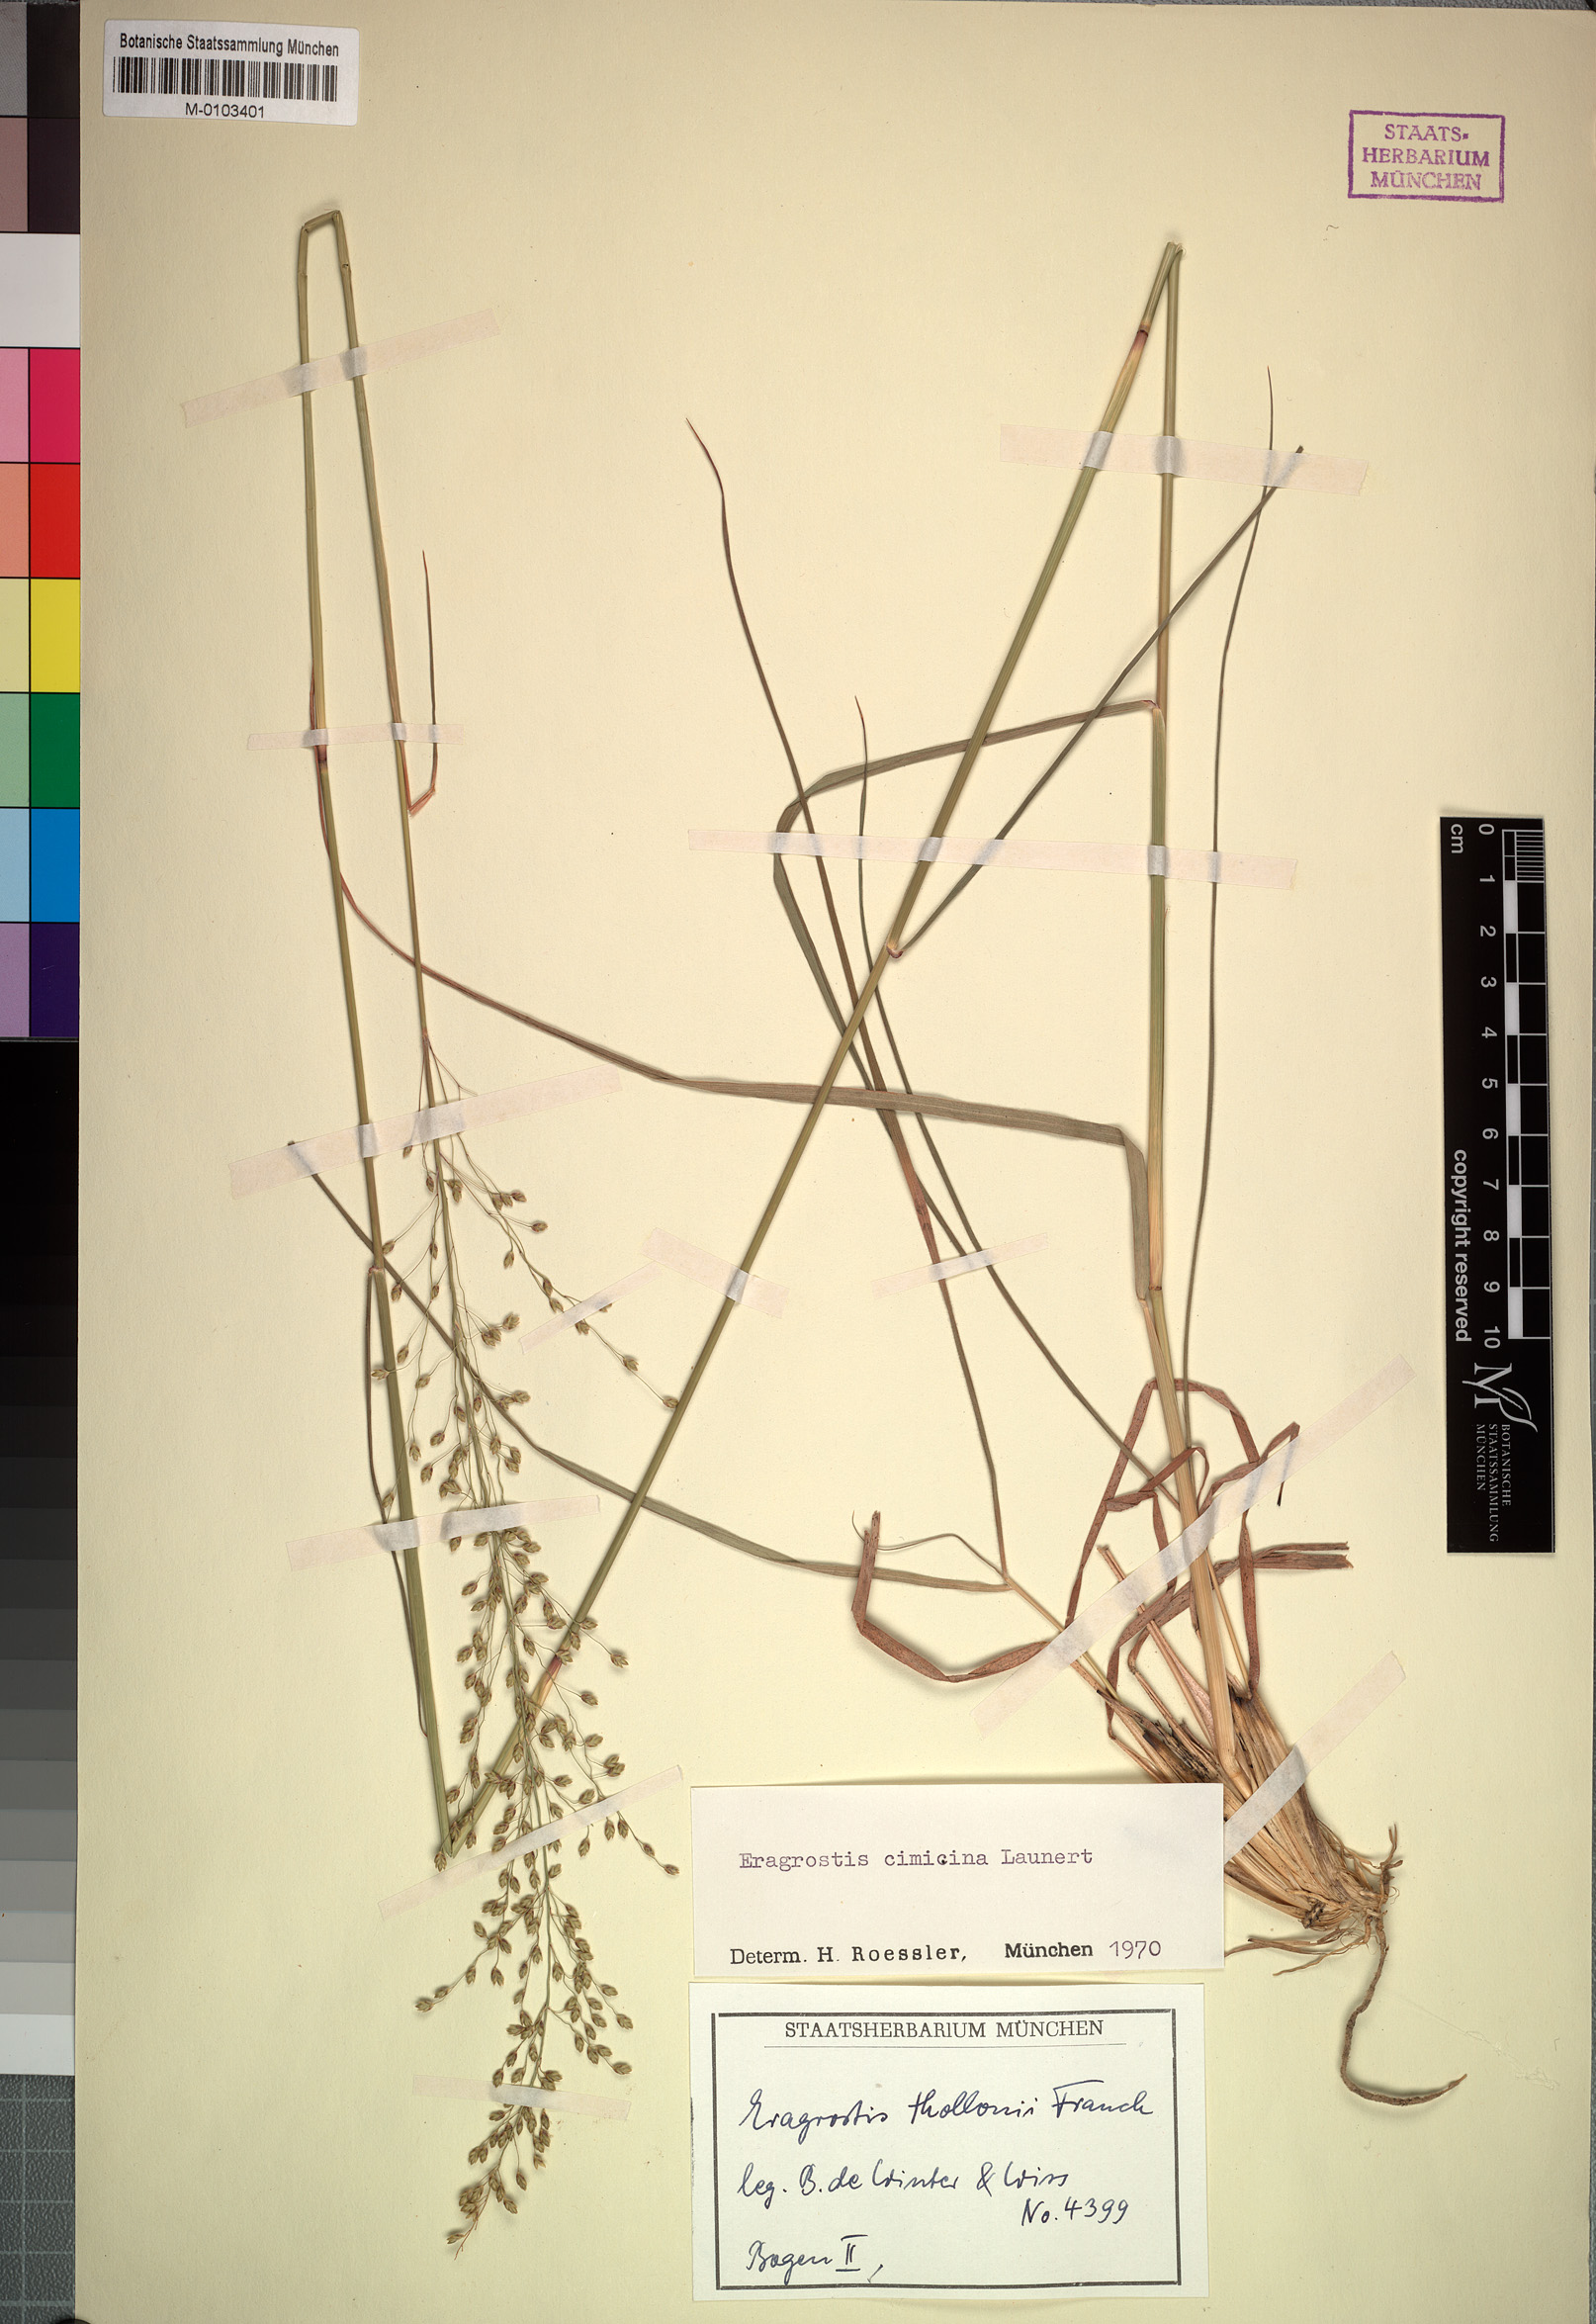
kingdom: Plantae
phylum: Tracheophyta
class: Liliopsida
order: Poales
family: Poaceae
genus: Eragrostis
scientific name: Eragrostis cimicina
